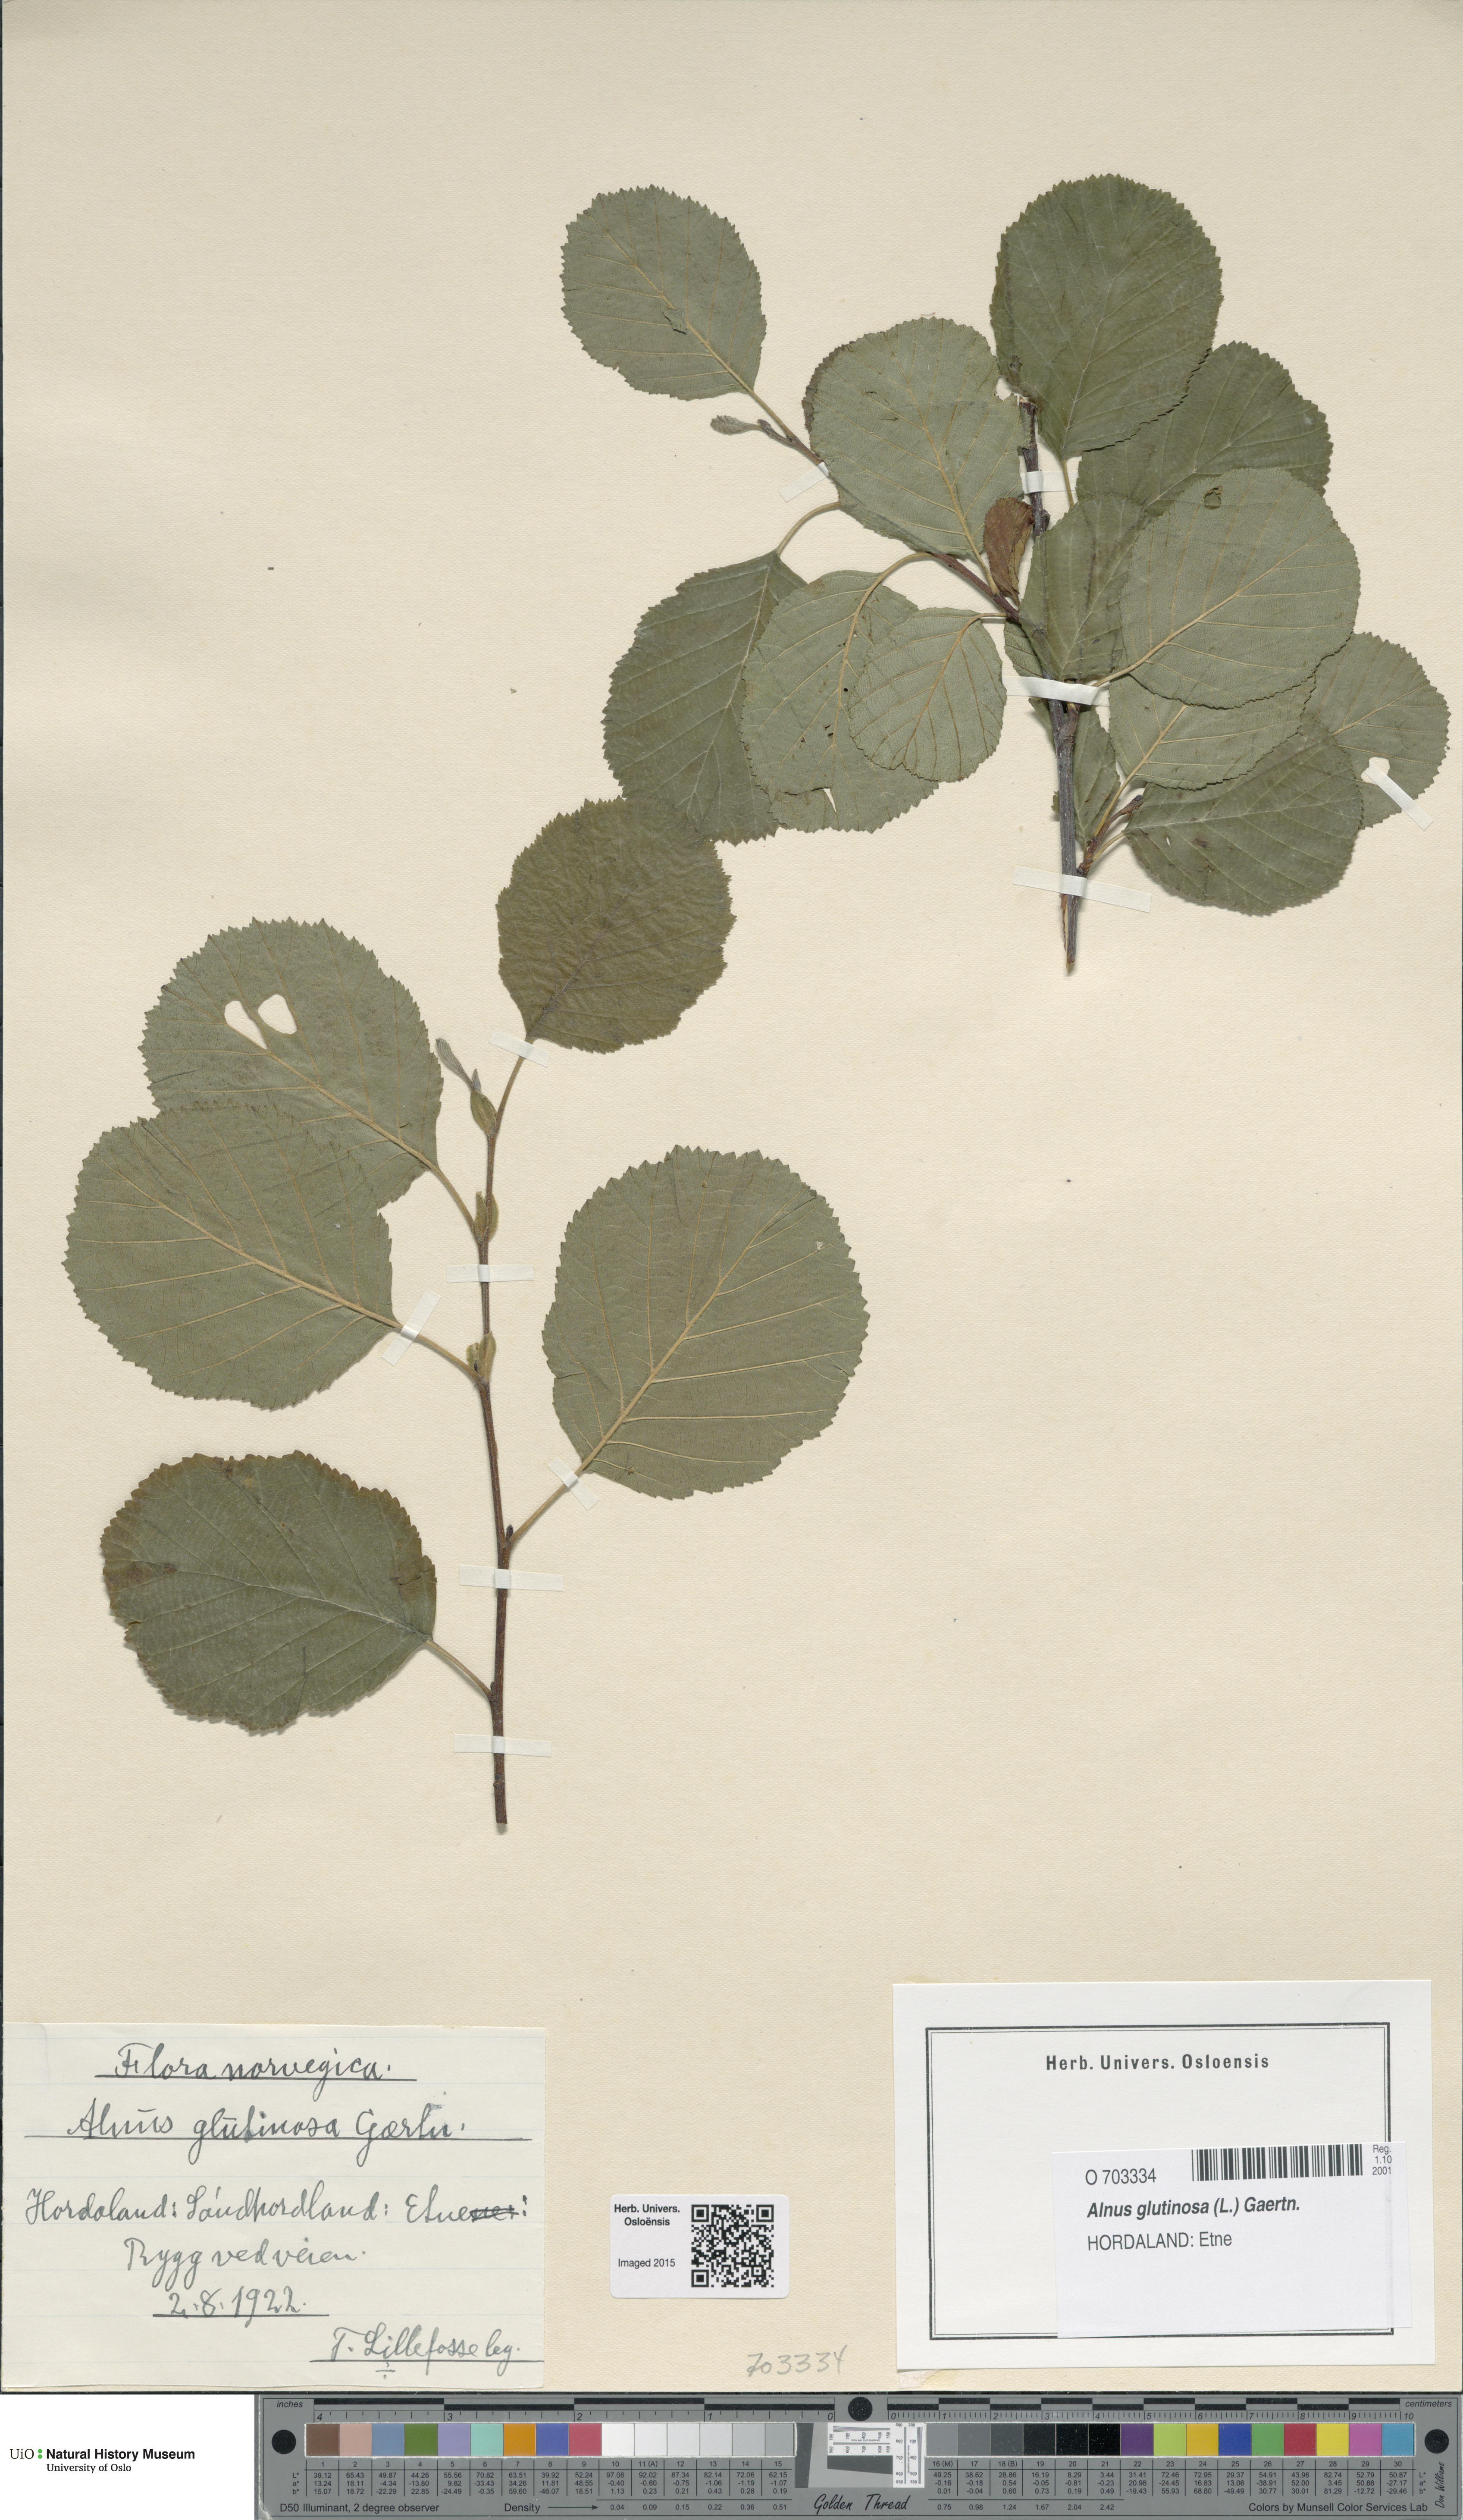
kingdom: Plantae
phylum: Tracheophyta
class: Magnoliopsida
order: Fagales
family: Betulaceae
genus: Alnus
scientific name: Alnus glutinosa
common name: Black alder
